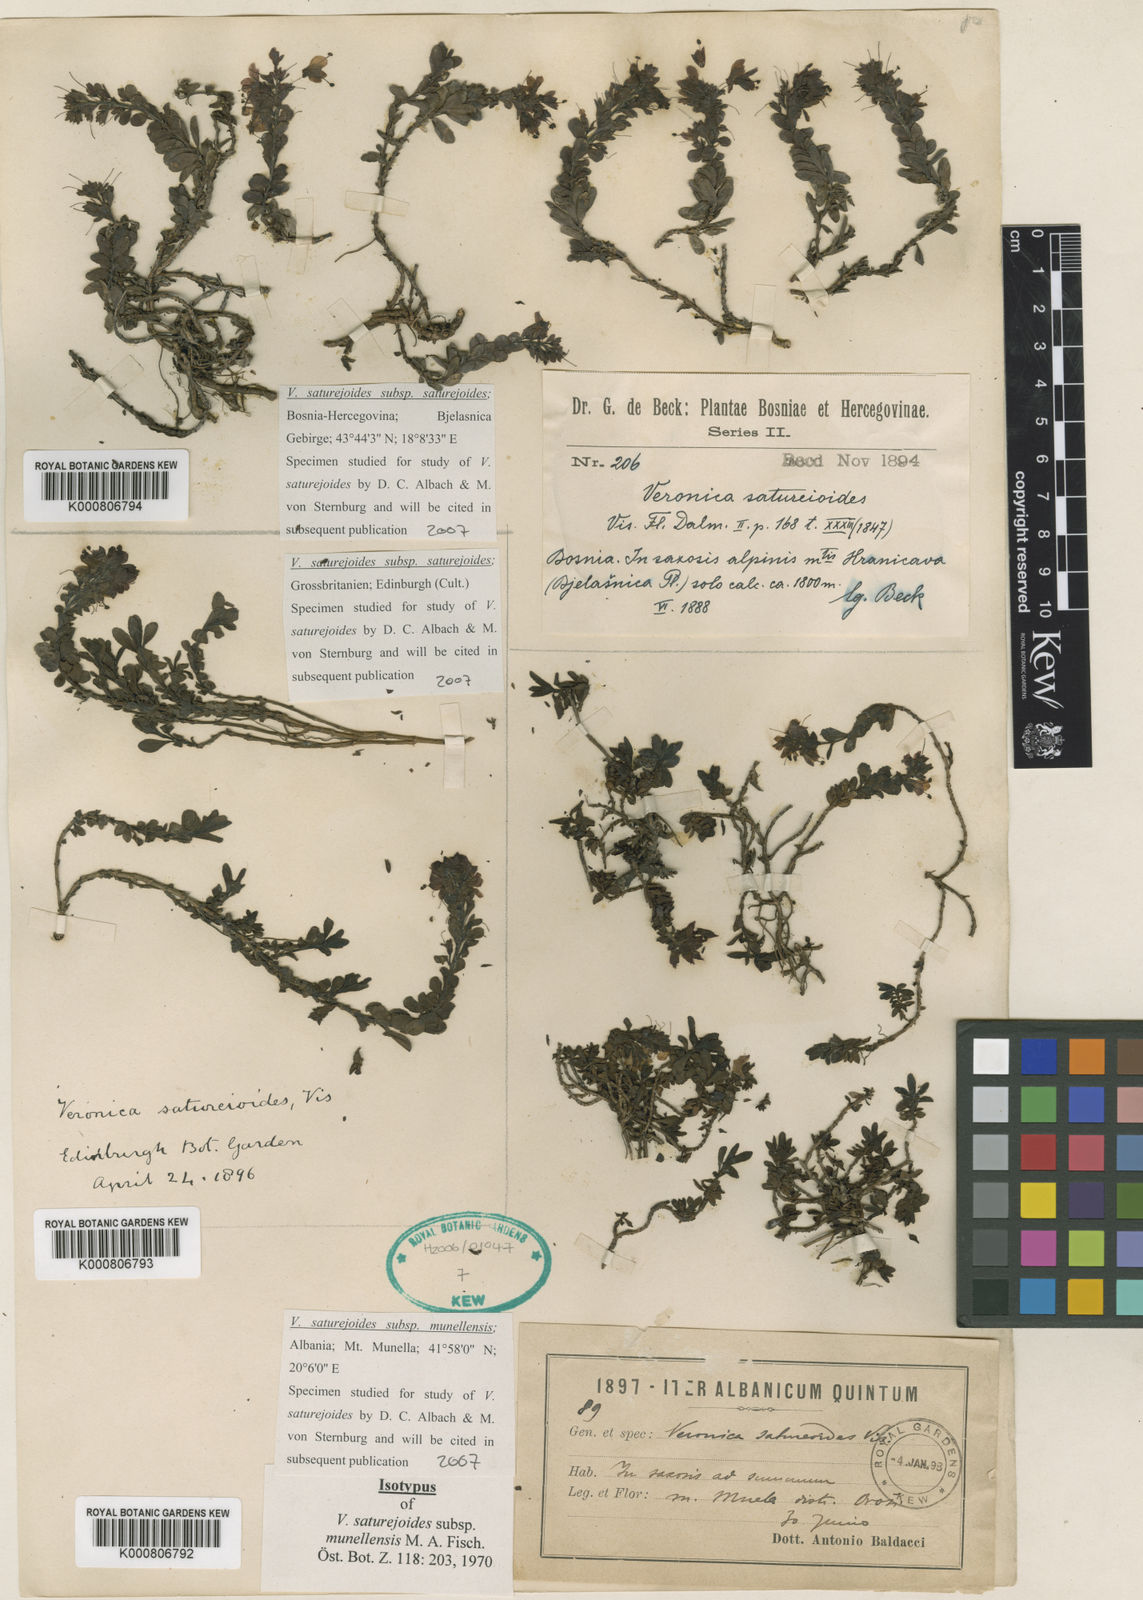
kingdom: Plantae
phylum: Tracheophyta
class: Magnoliopsida
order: Lamiales
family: Plantaginaceae
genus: Veronica
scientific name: Veronica saturejoides
